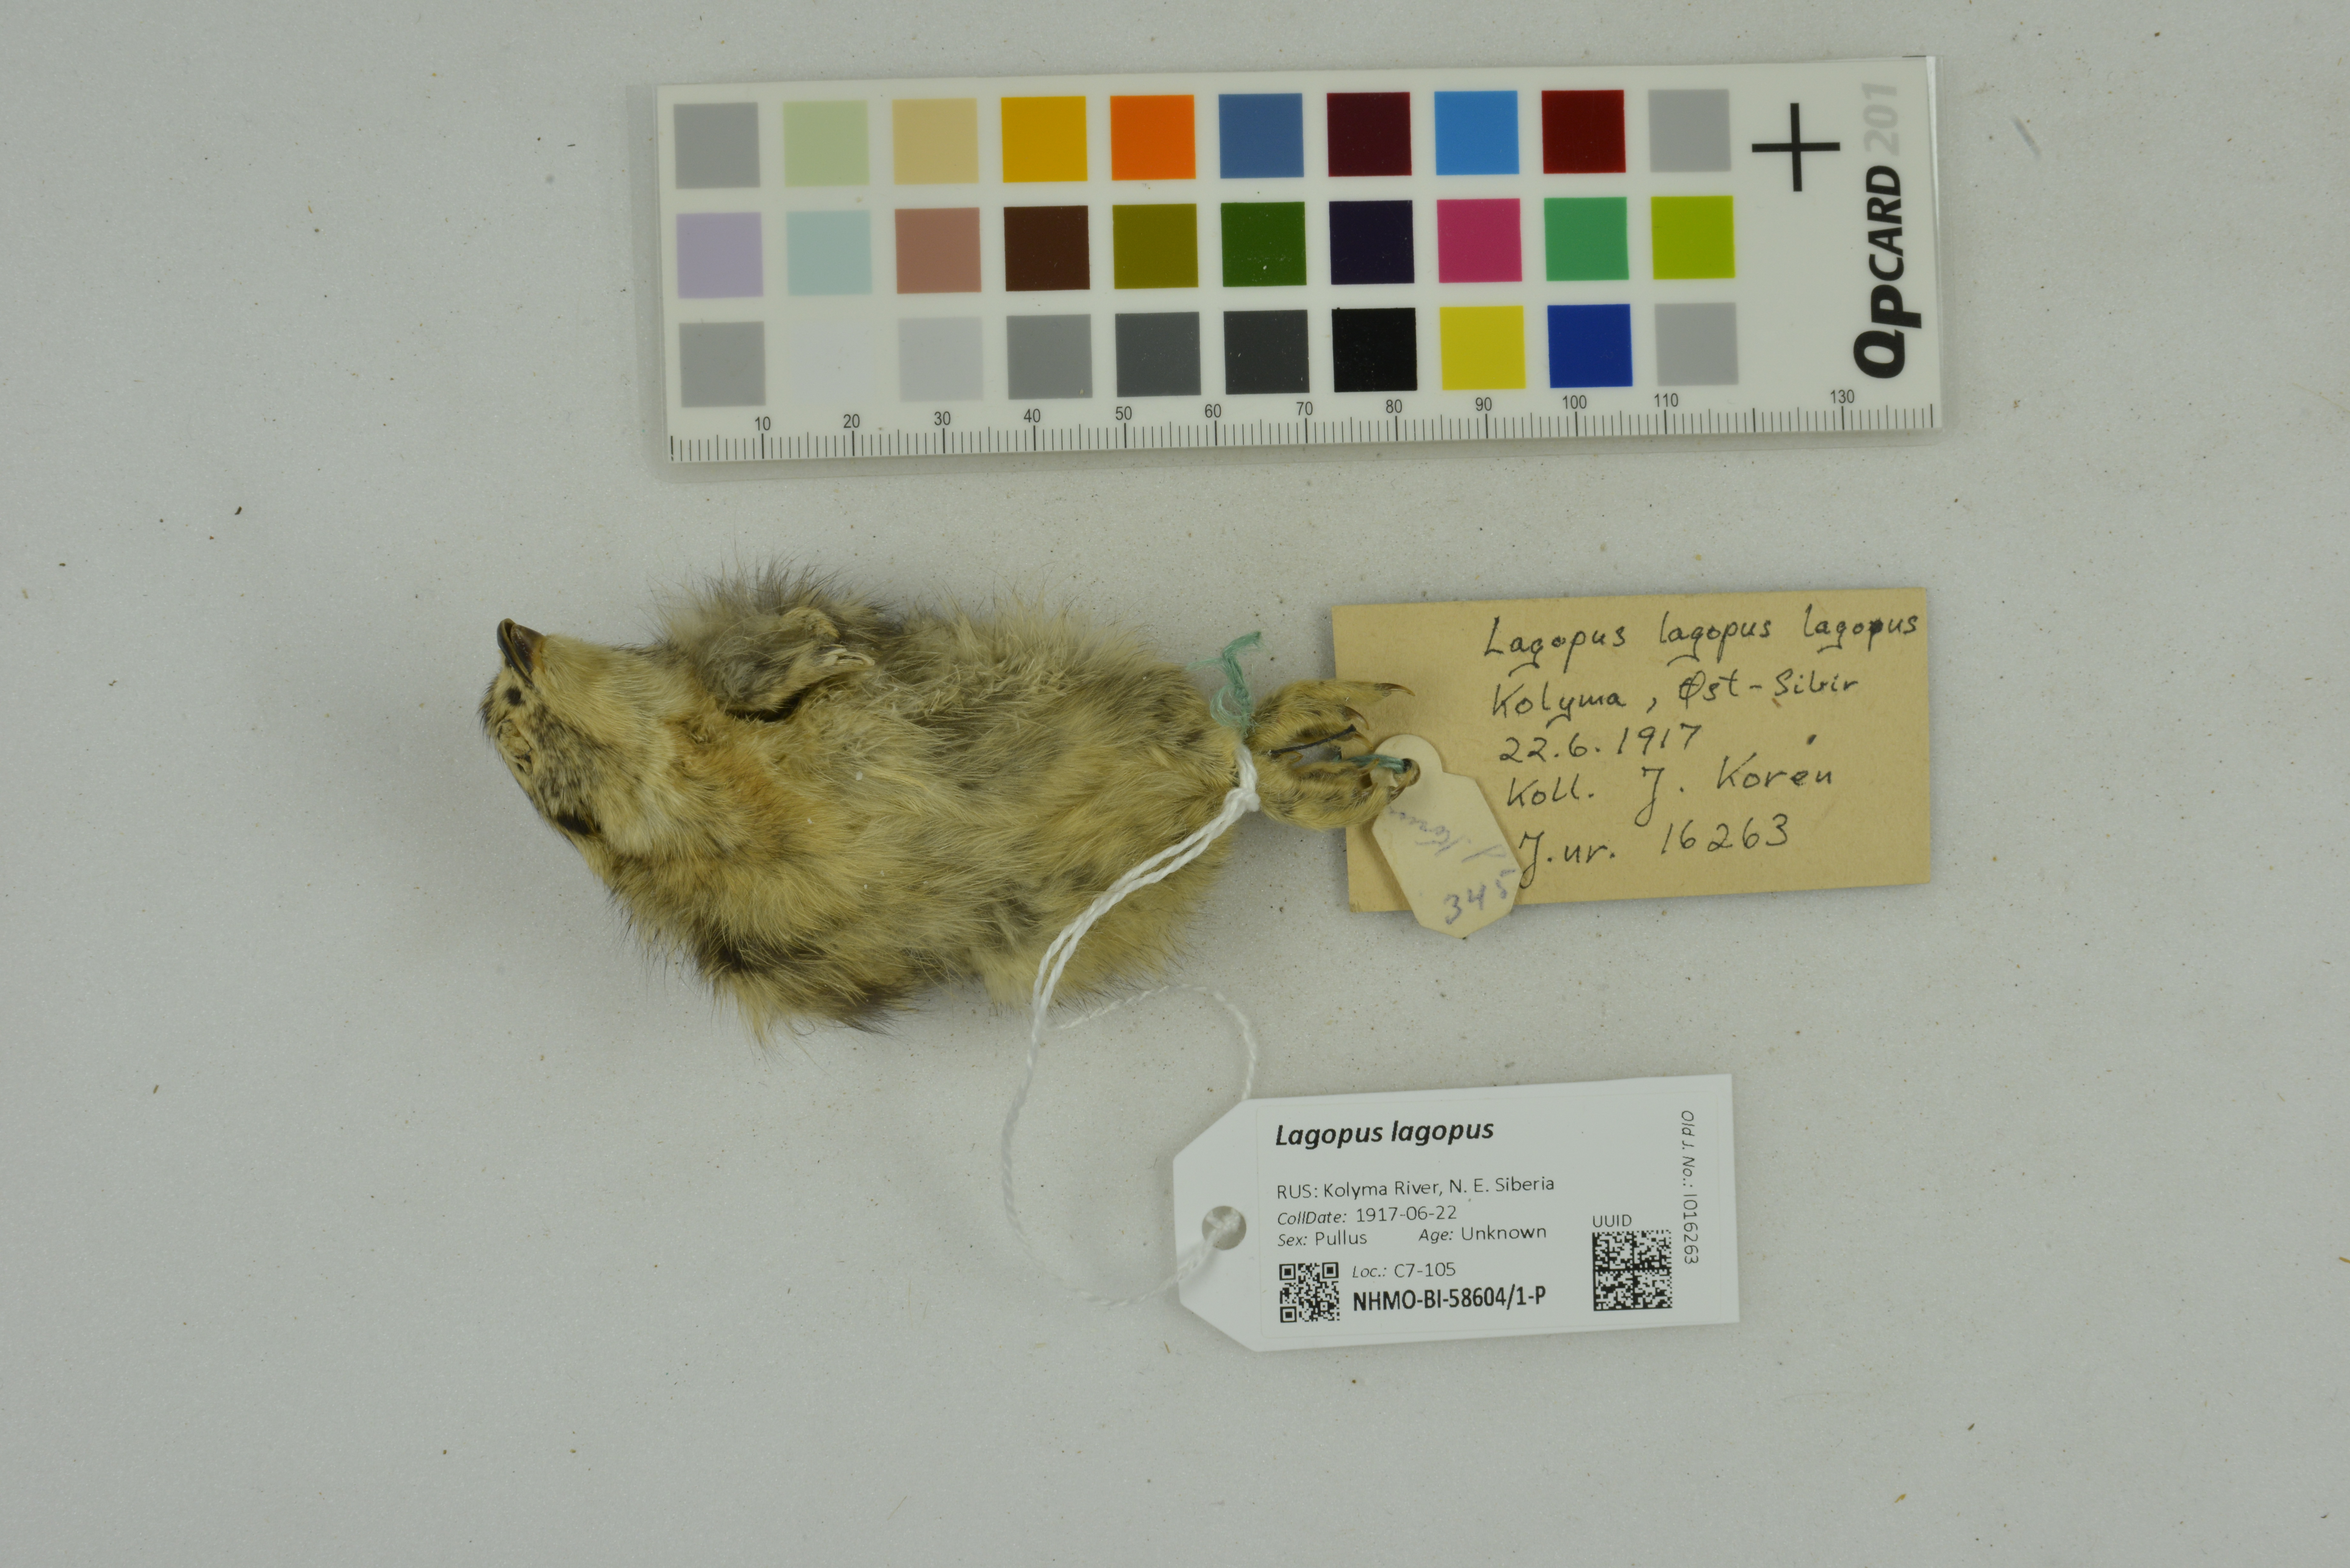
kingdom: Animalia
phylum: Chordata
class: Aves
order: Galliformes
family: Phasianidae
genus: Lagopus
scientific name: Lagopus lagopus
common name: Willow ptarmigan
